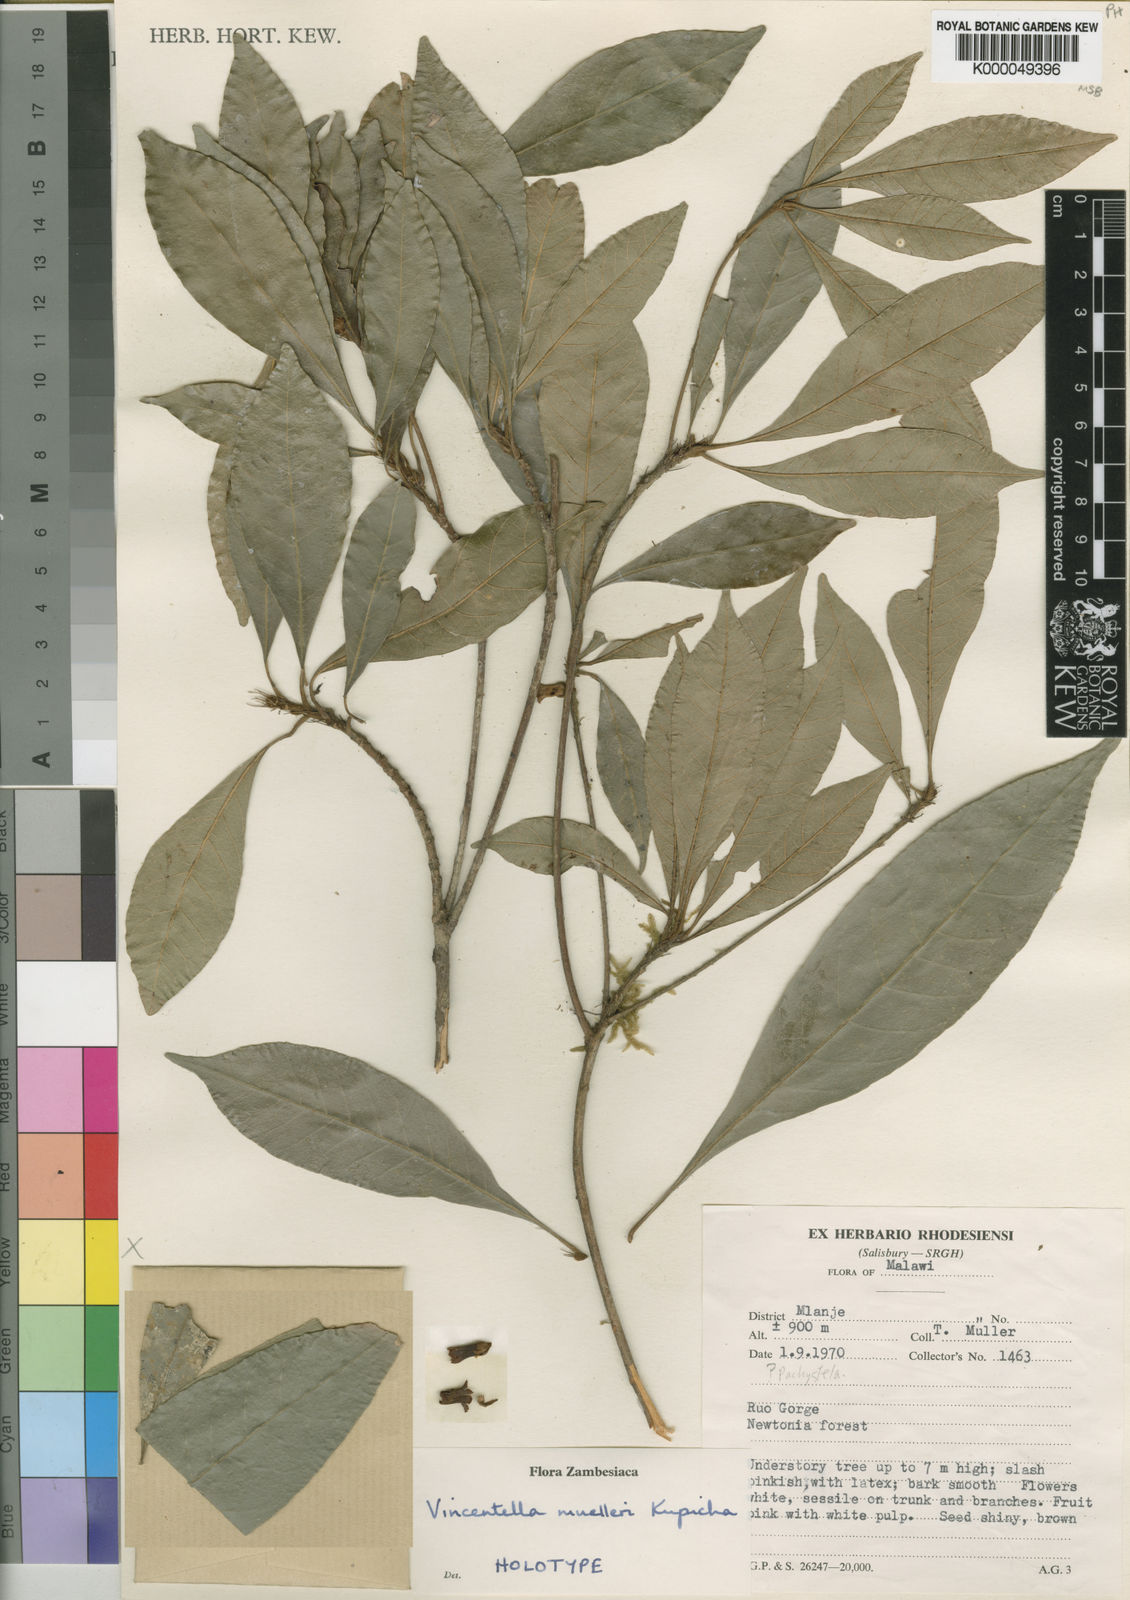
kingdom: Plantae
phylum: Tracheophyta
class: Magnoliopsida
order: Ericales
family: Sapotaceae
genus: Synsepalum
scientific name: Synsepalum muelleri
